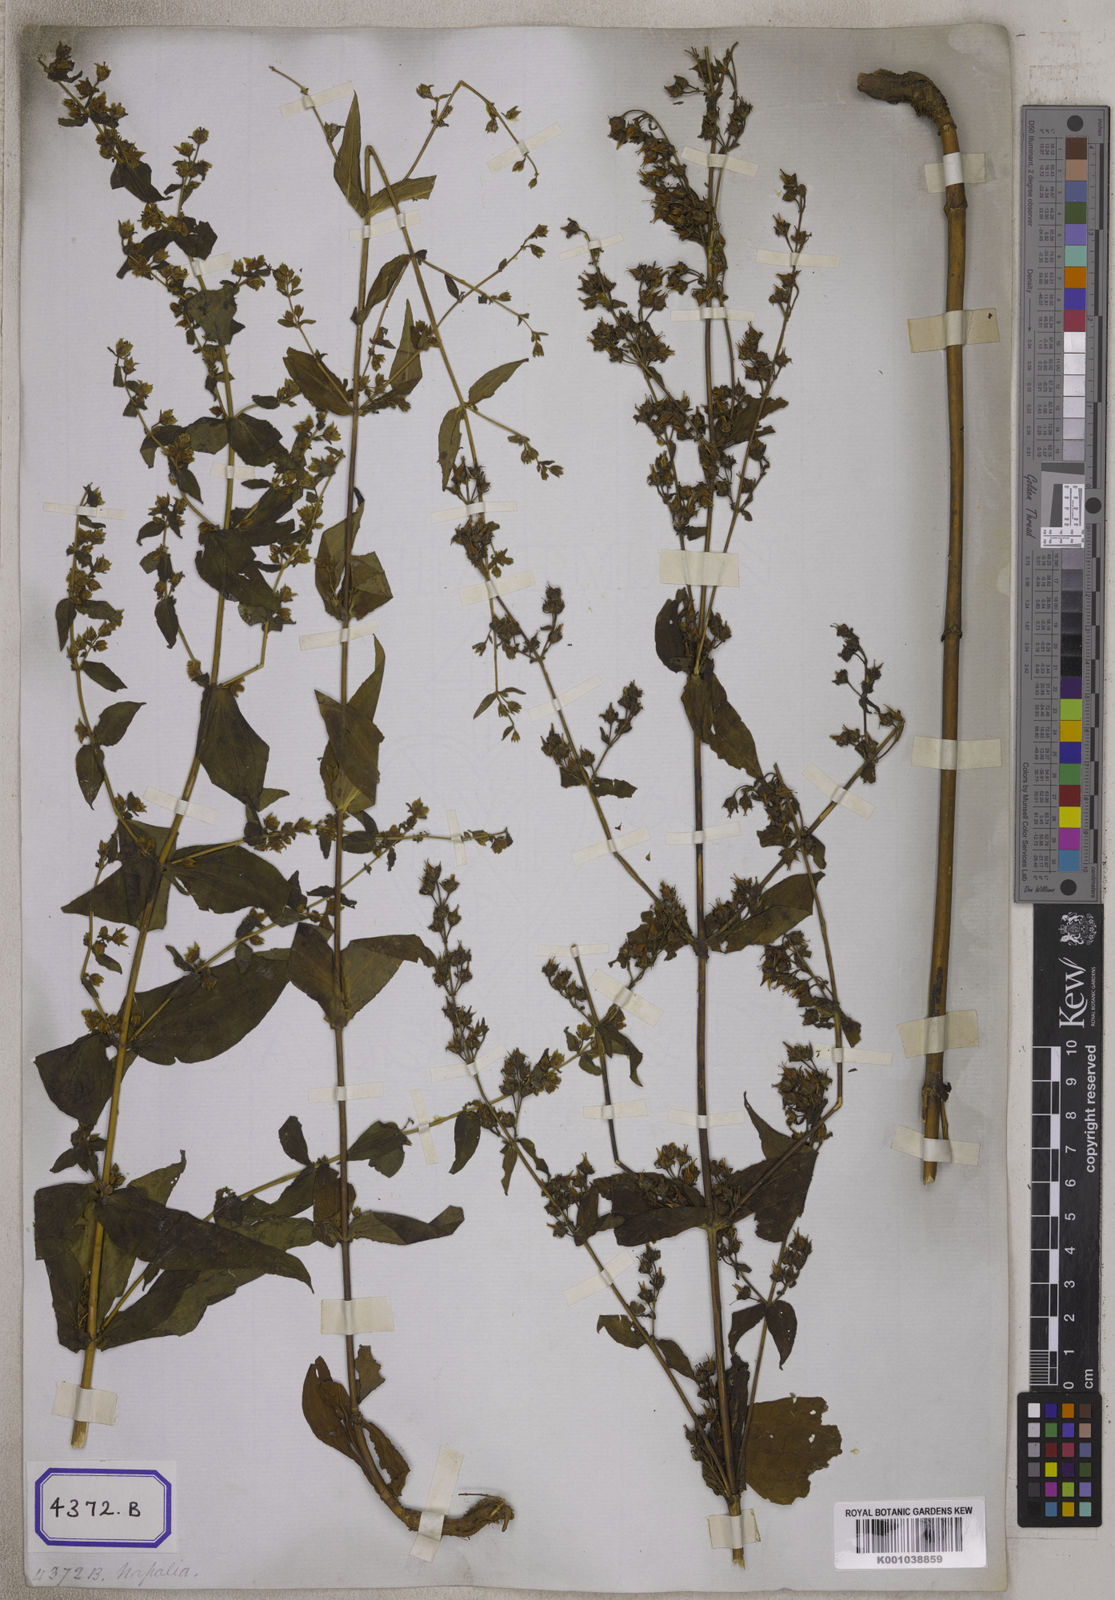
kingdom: Plantae
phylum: Tracheophyta
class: Magnoliopsida
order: Gentianales
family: Gentianaceae
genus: Swertia
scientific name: Swertia chirayita
